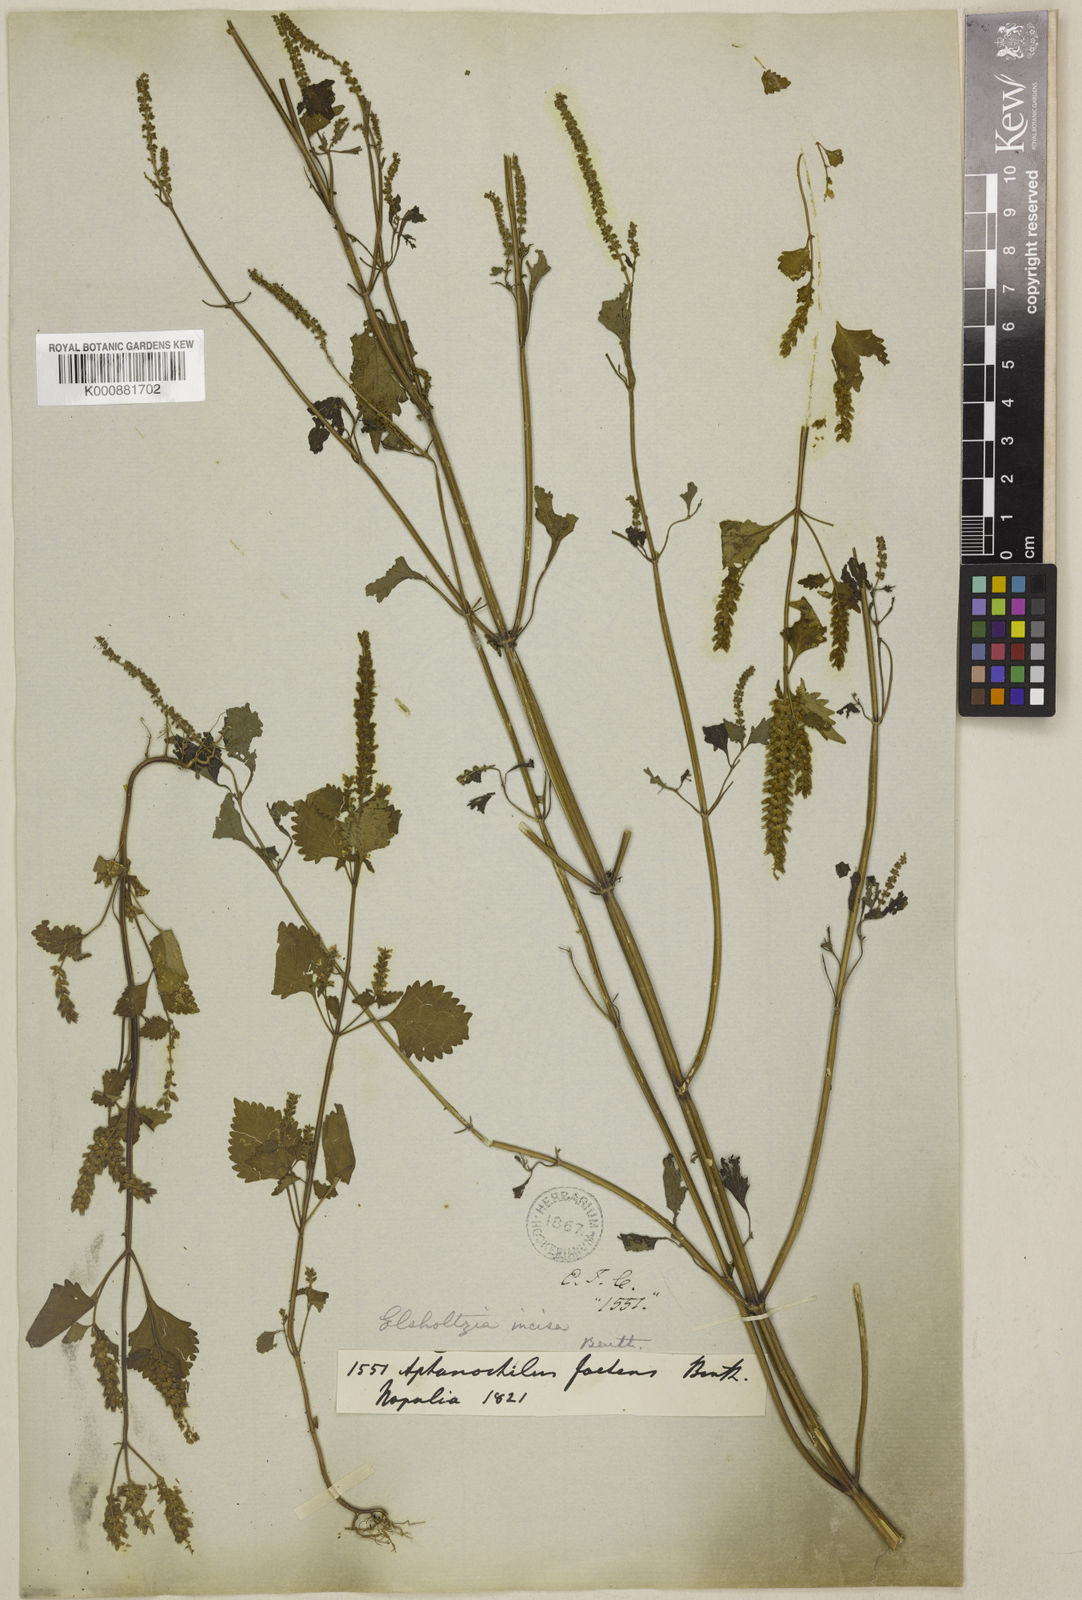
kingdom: Plantae
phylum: Tracheophyta
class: Magnoliopsida
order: Lamiales
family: Lamiaceae
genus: Elsholtzia
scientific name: Elsholtzia stachyodes
